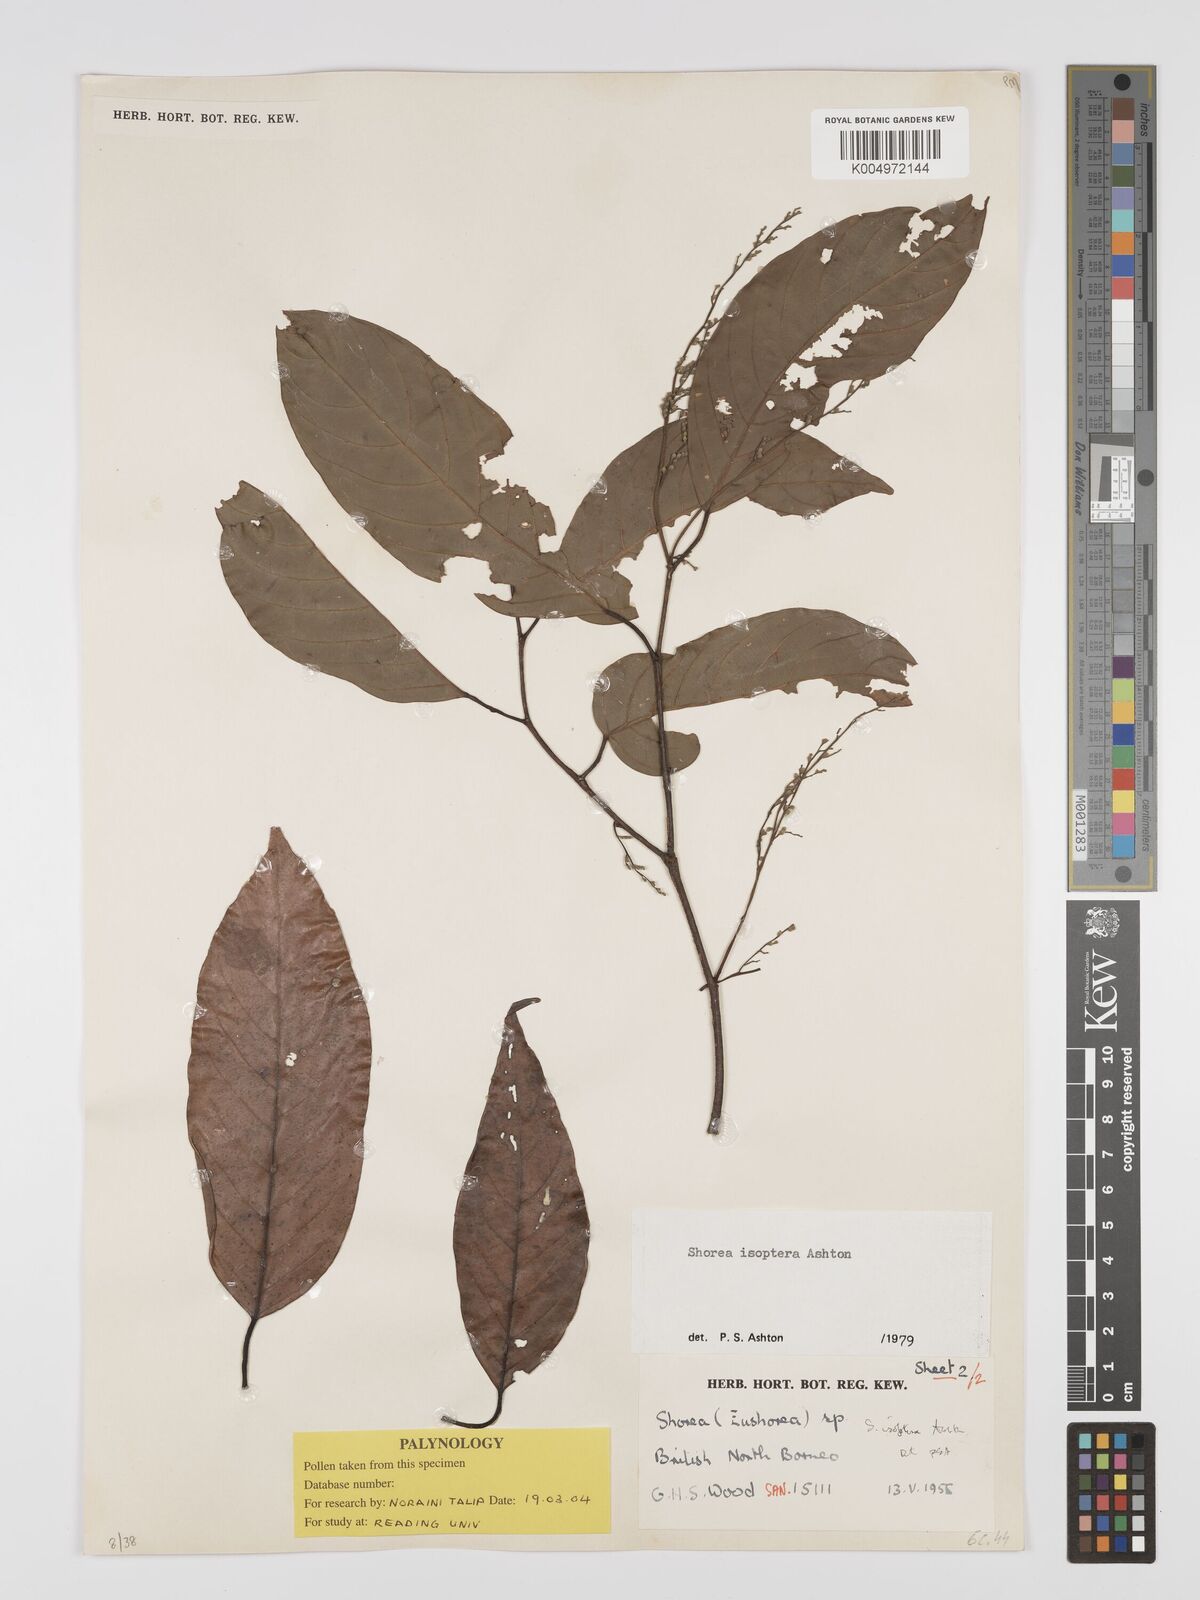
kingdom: Plantae
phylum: Tracheophyta
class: Magnoliopsida
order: Malvales
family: Dipterocarpaceae
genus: Neohopea
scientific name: Neohopea isoptera
